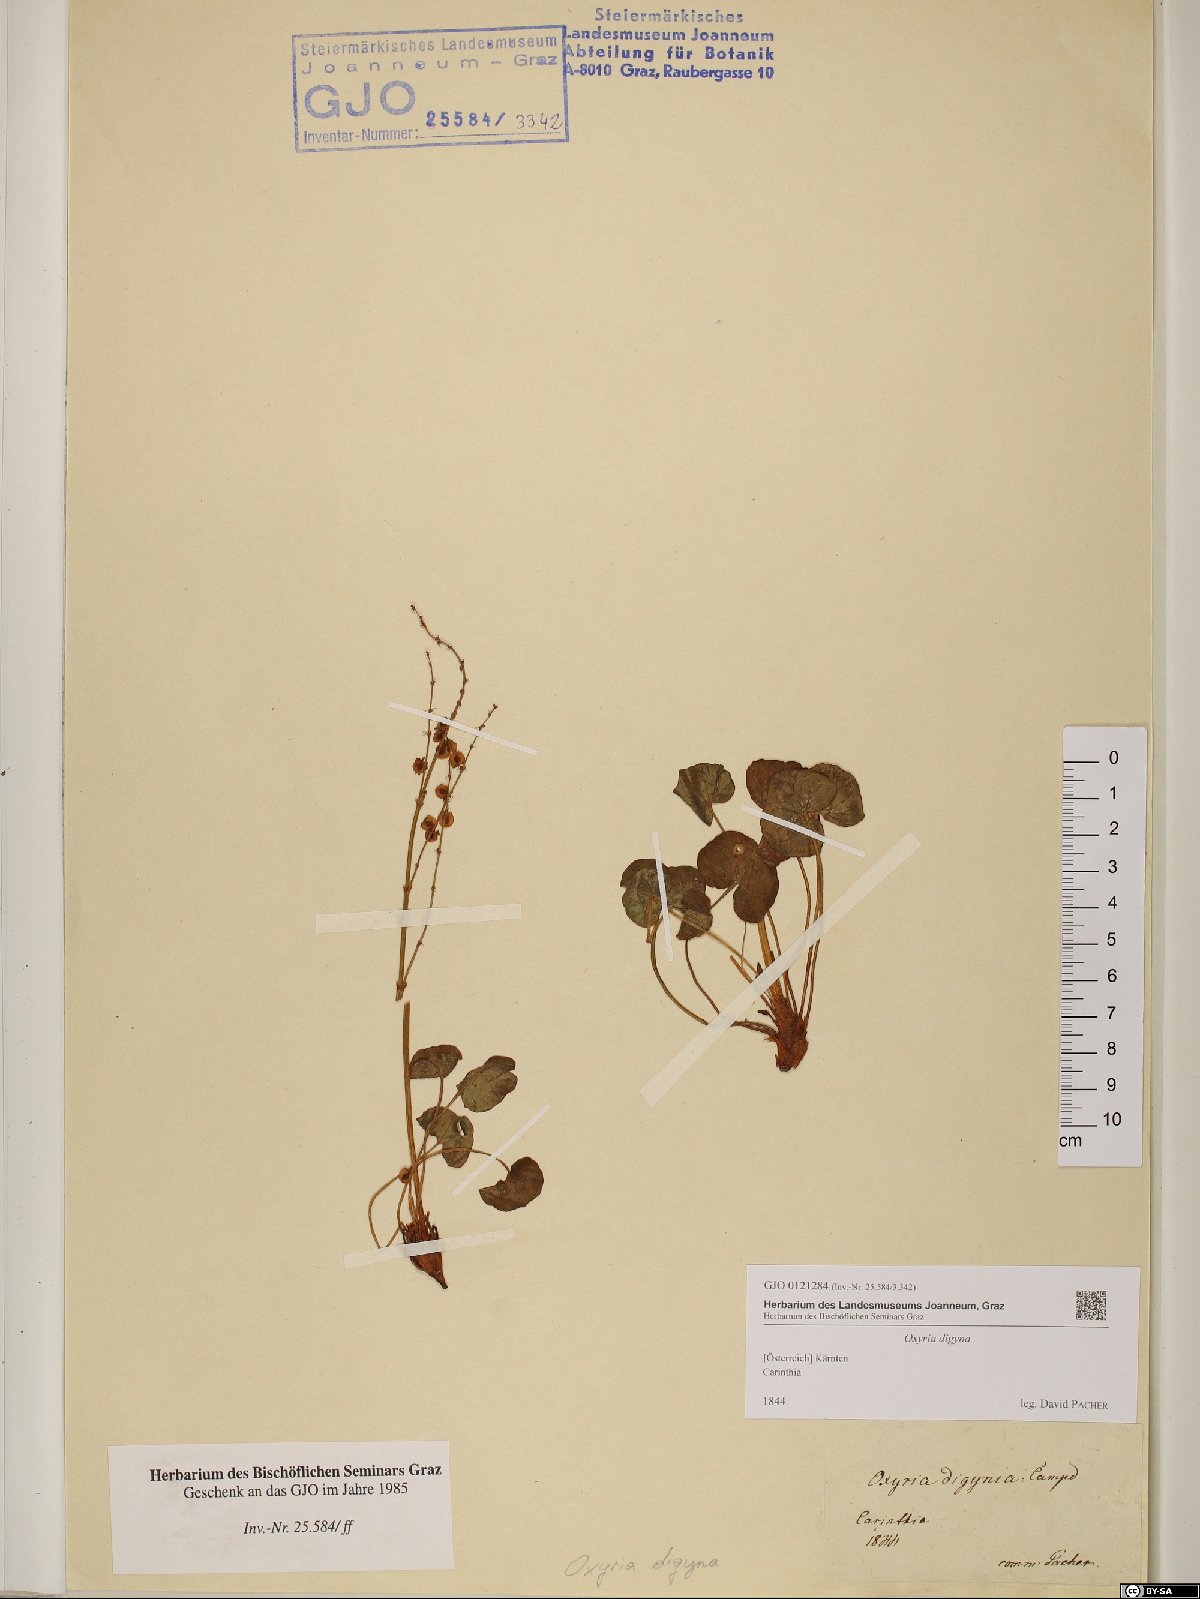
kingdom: Plantae
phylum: Tracheophyta
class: Magnoliopsida
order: Caryophyllales
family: Polygonaceae
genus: Oxyria
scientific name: Oxyria digyna
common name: Alpine mountain-sorrel
